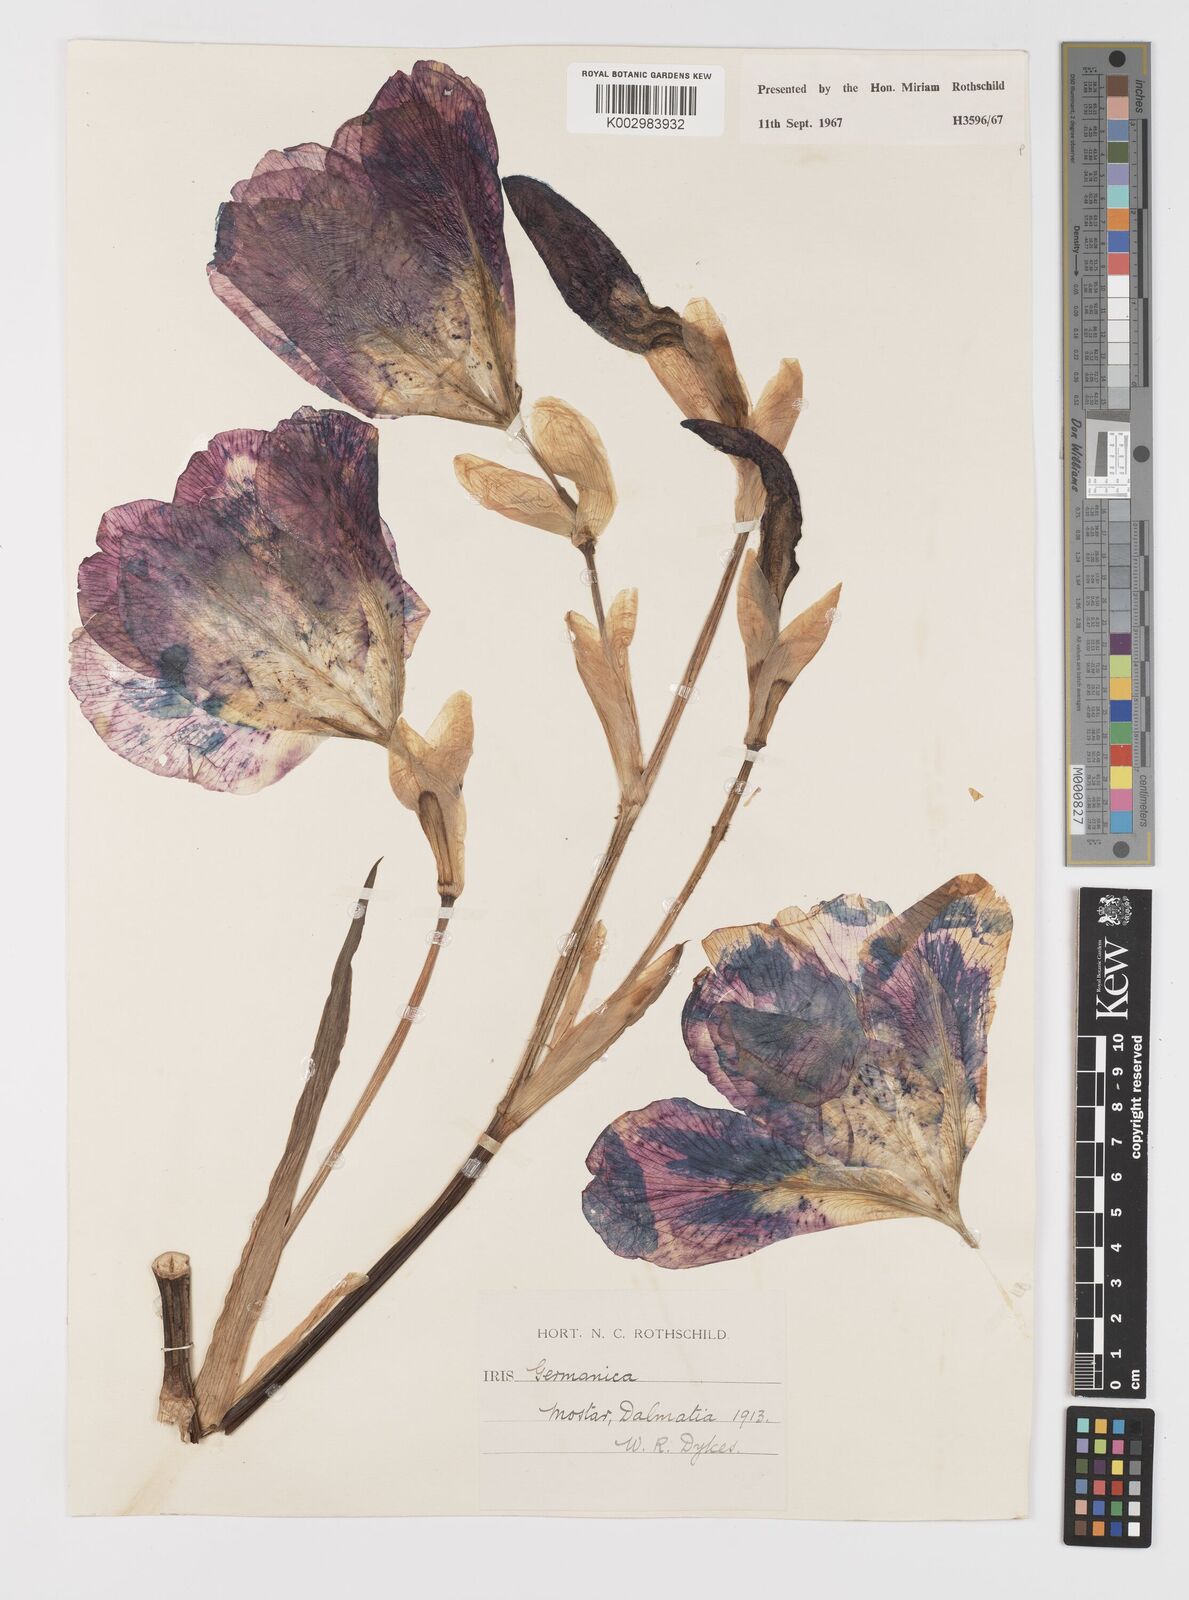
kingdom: Plantae
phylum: Tracheophyta
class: Liliopsida
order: Asparagales
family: Iridaceae
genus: Iris
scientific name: Iris germanica
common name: German iris
